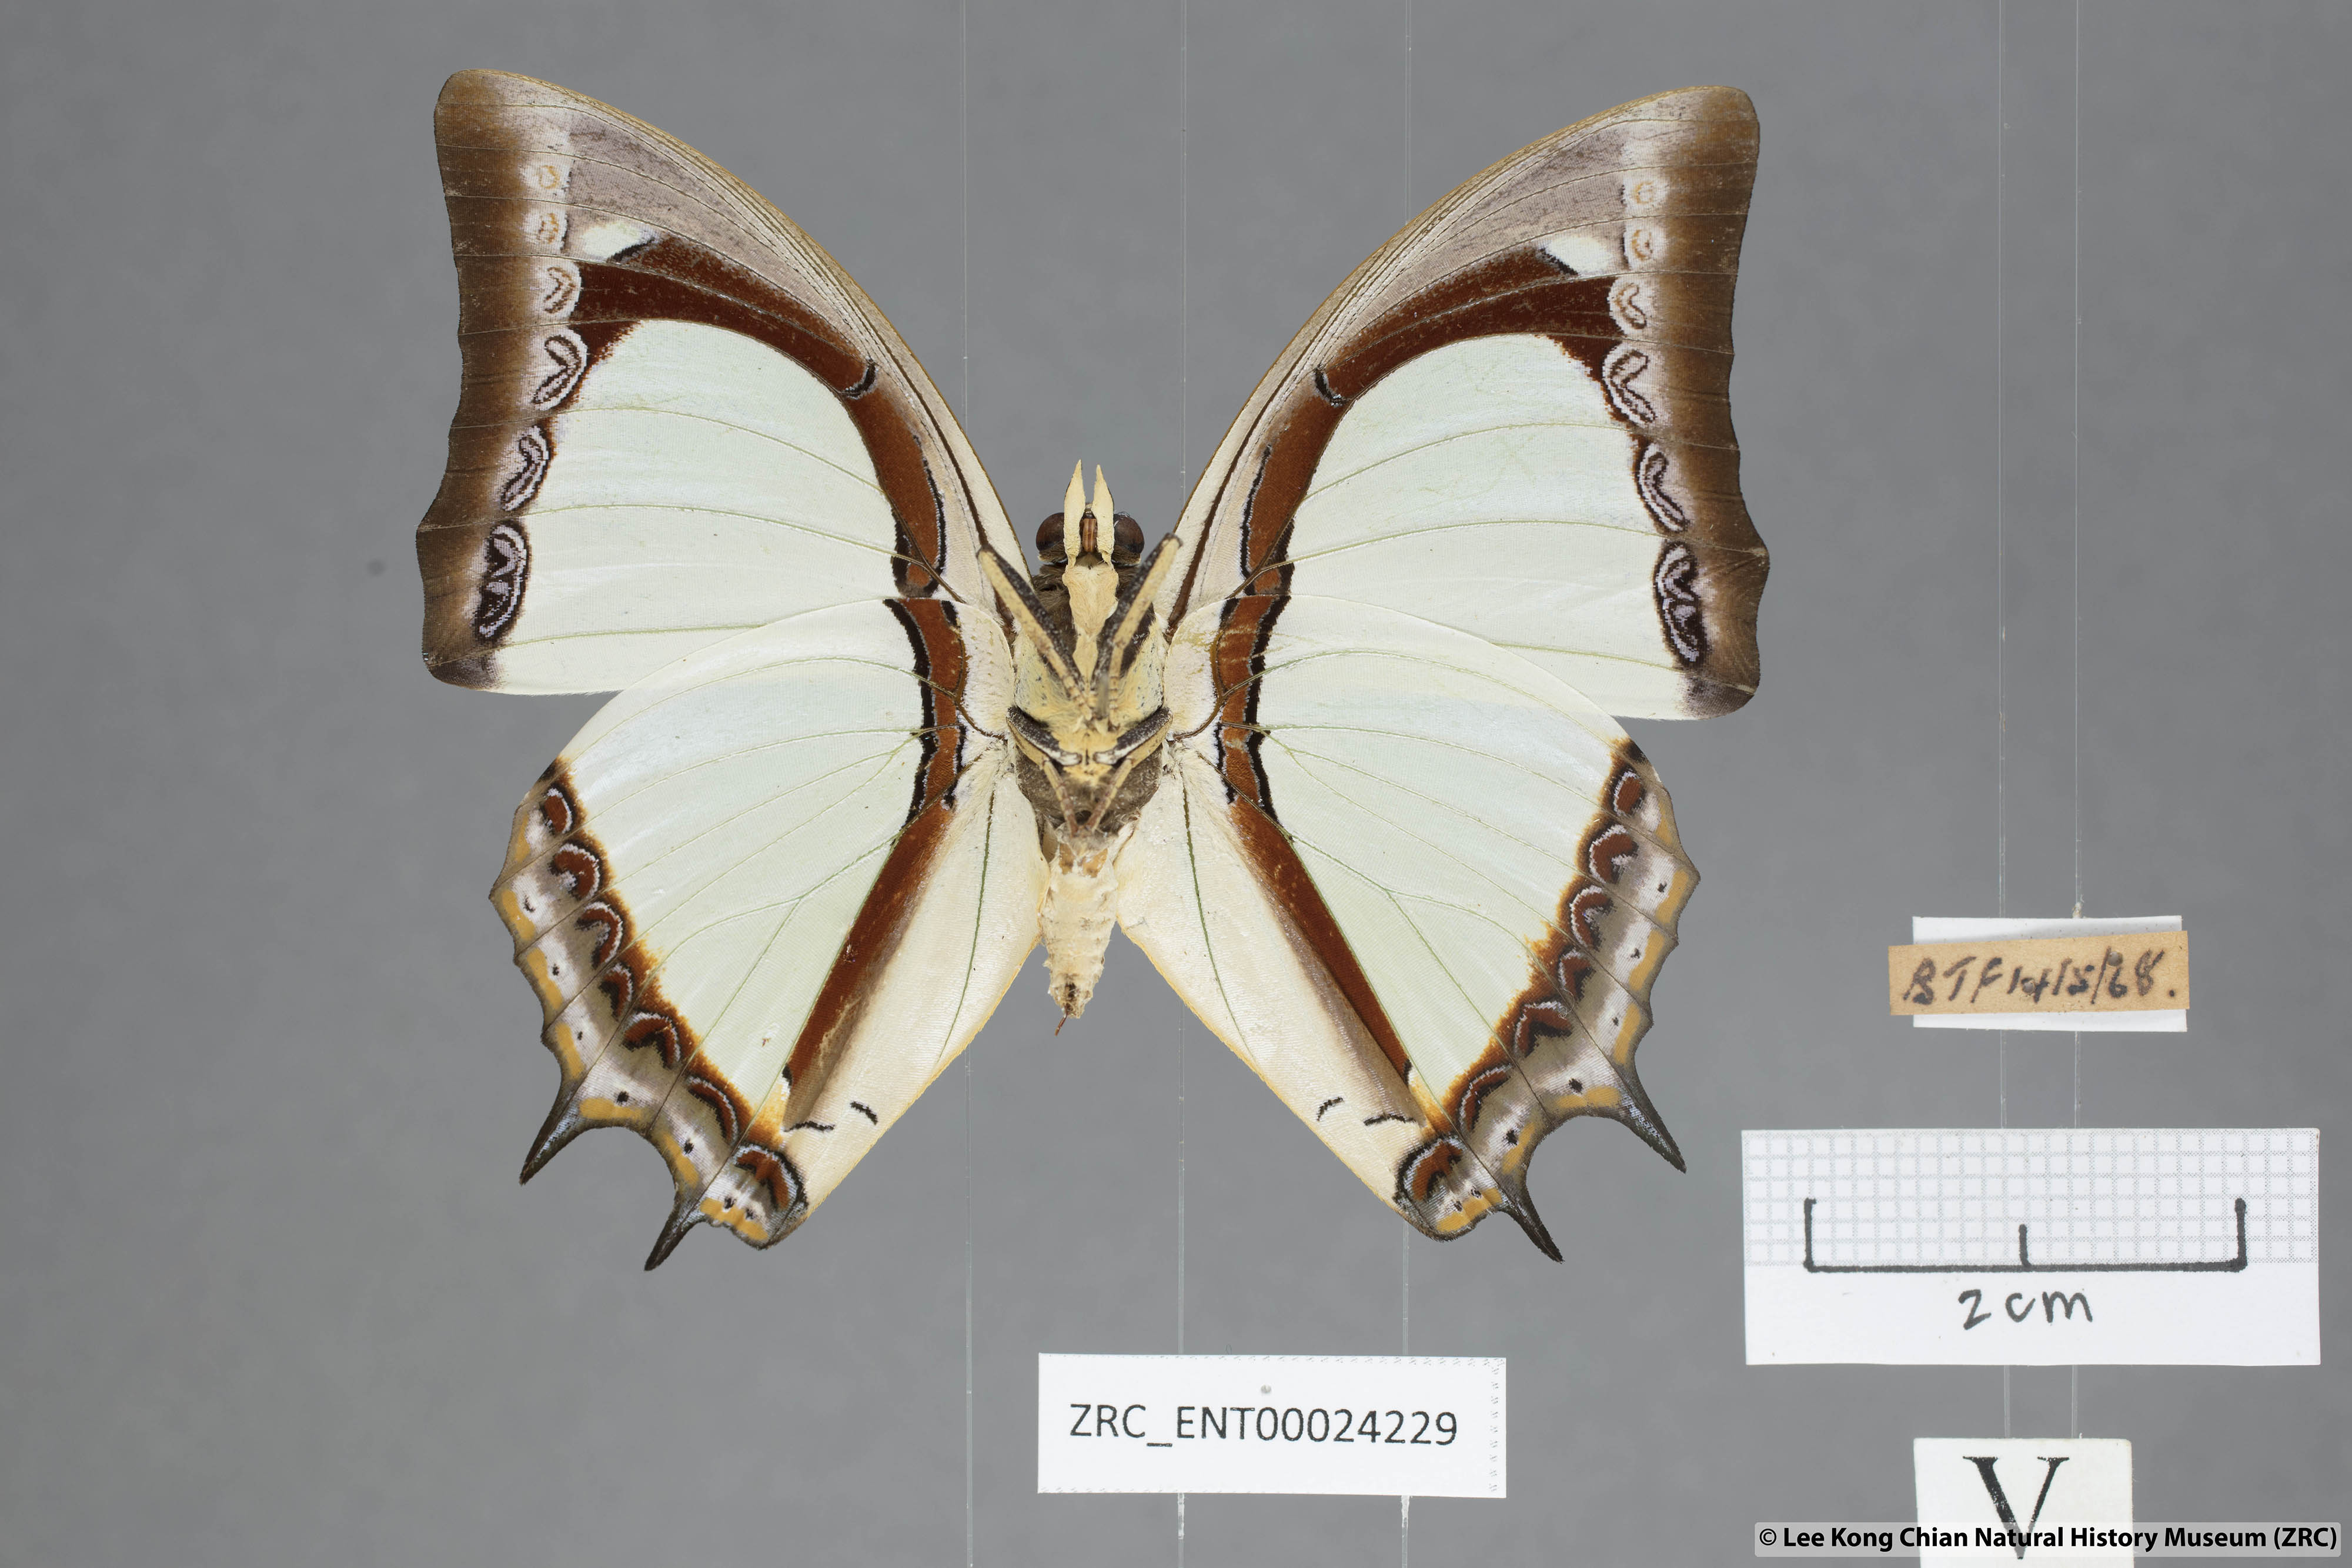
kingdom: Animalia
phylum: Arthropoda
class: Insecta
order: Lepidoptera
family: Nymphalidae
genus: Polyura
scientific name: Polyura jalysus
